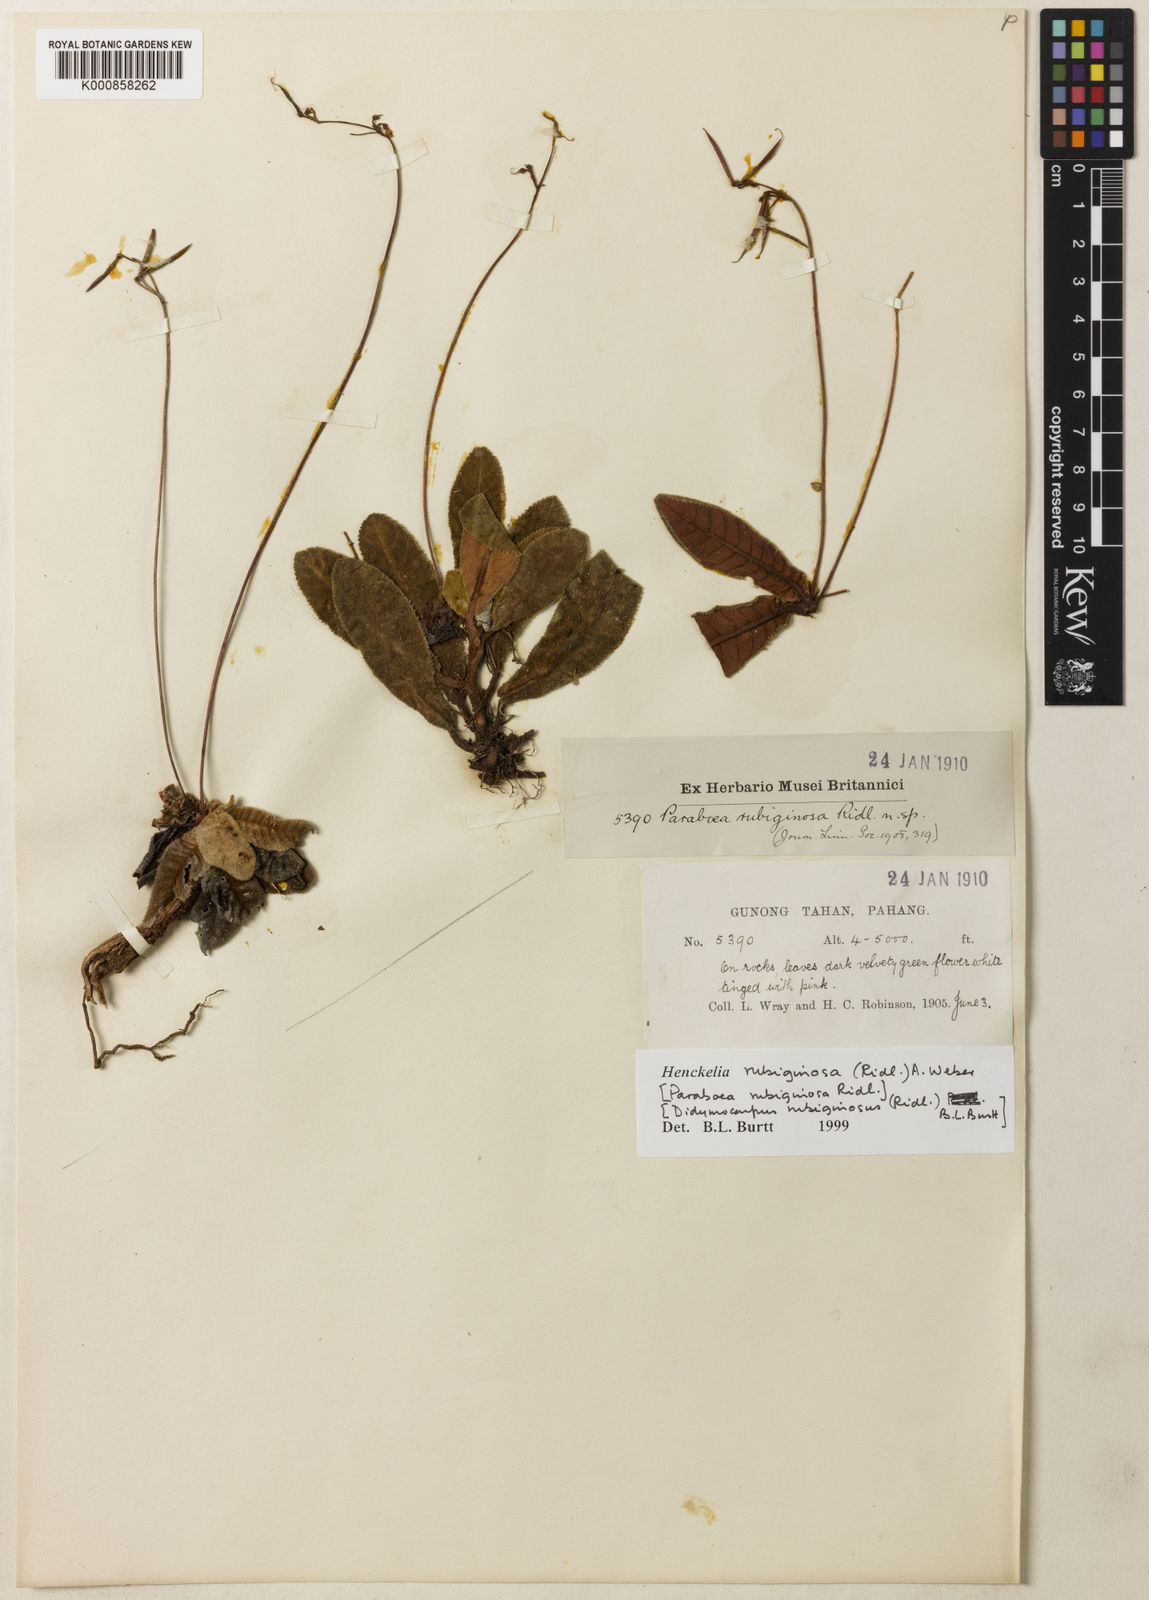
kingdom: Plantae
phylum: Tracheophyta
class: Magnoliopsida
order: Lamiales
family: Gesneriaceae
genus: Codonoboea
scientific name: Codonoboea rubiginosa
